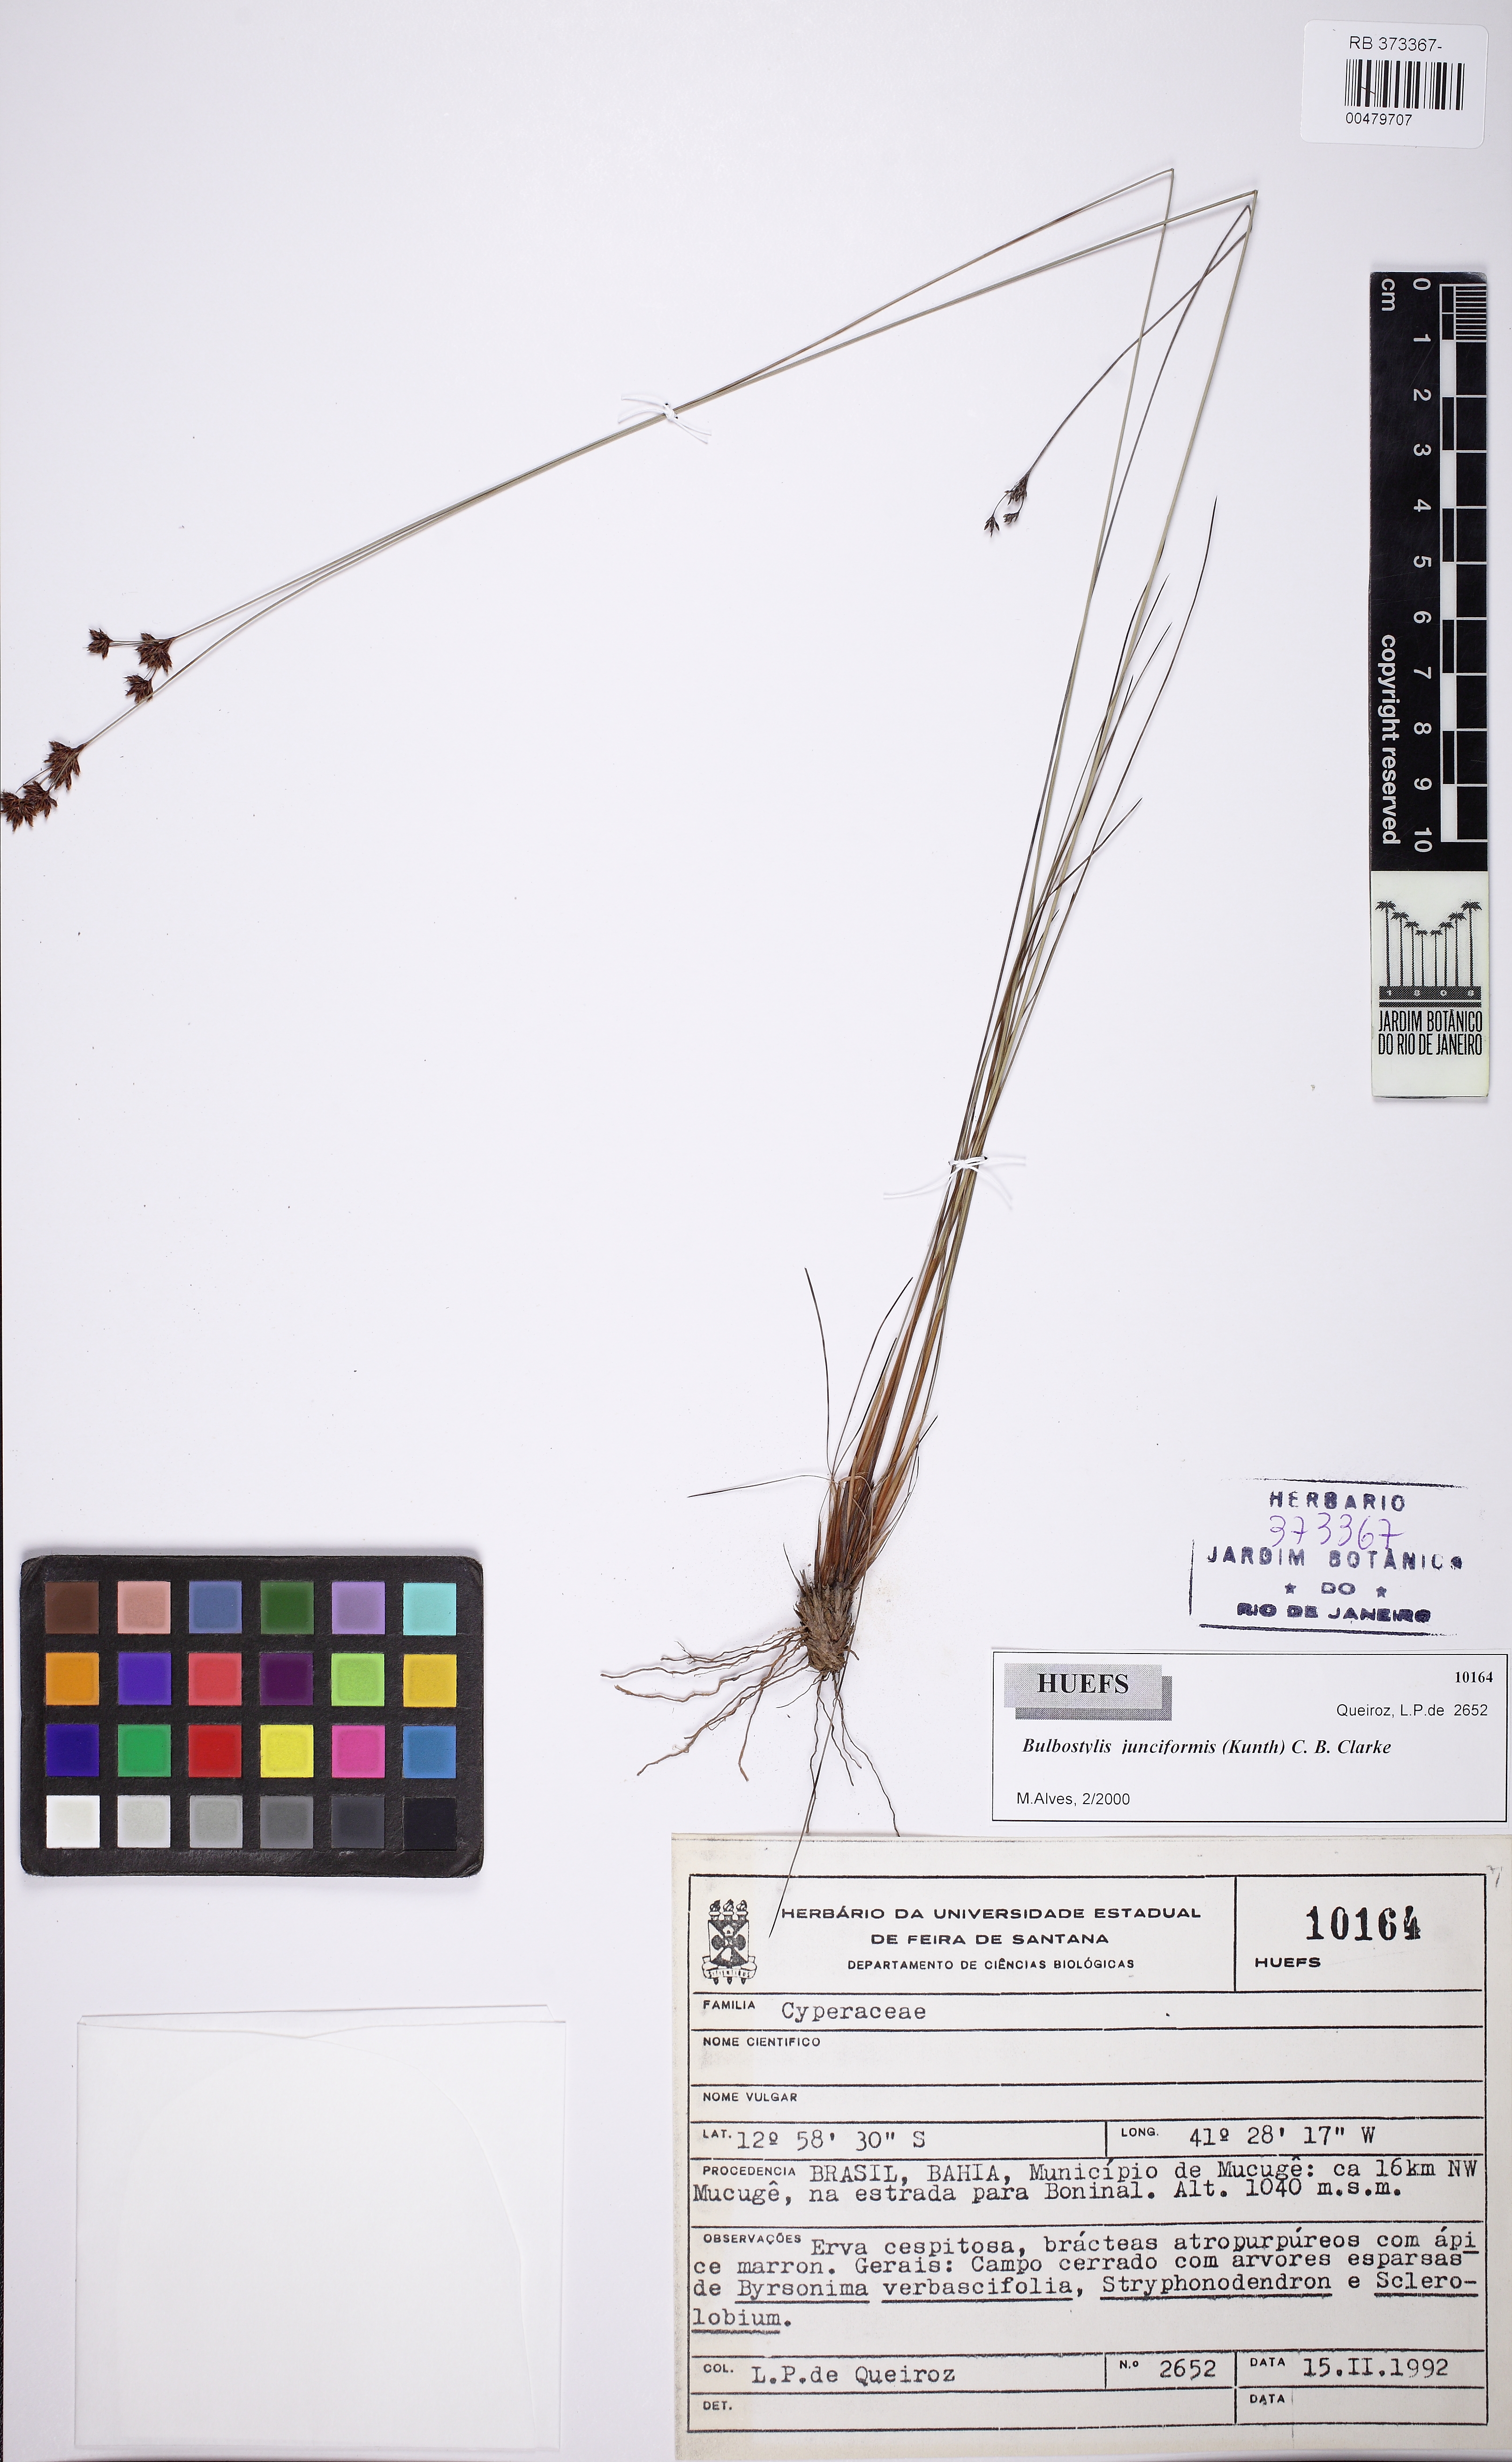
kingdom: Plantae
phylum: Tracheophyta
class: Liliopsida
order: Poales
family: Cyperaceae
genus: Bulbostylis
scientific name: Bulbostylis junciformis
